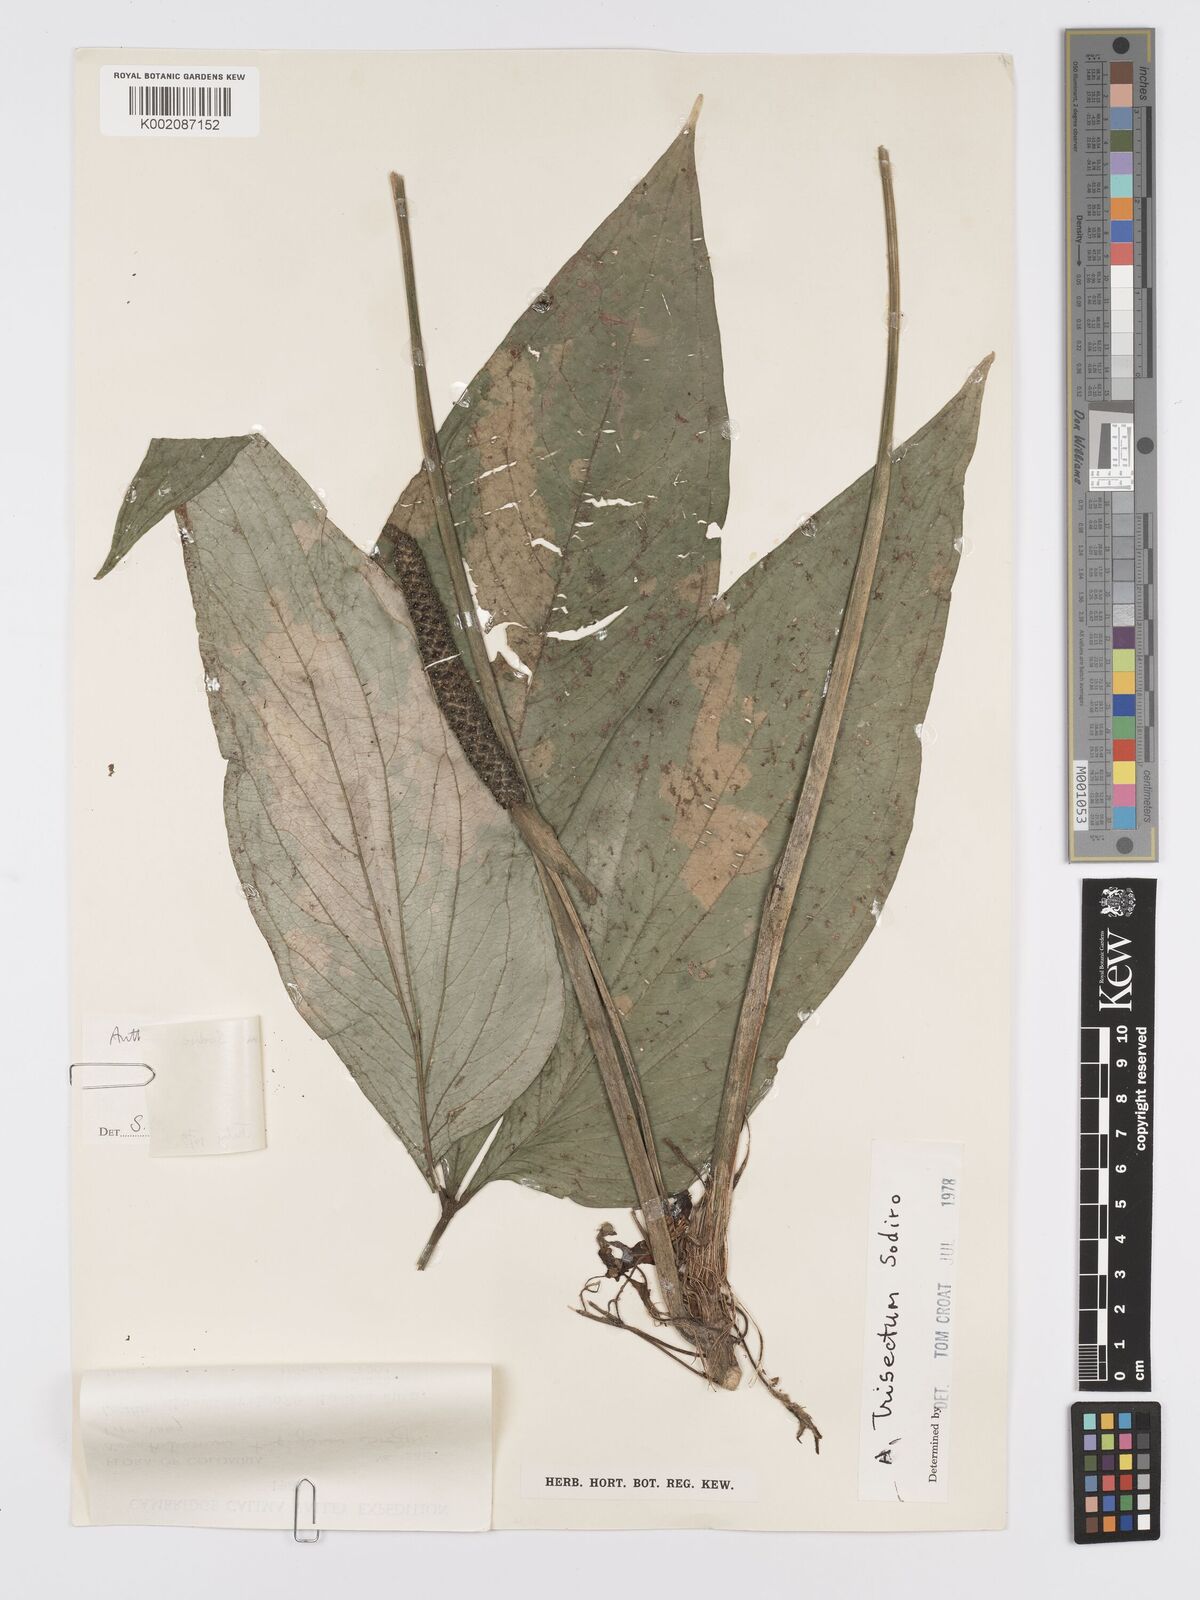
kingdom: Plantae
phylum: Tracheophyta
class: Liliopsida
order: Alismatales
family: Araceae
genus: Anthurium
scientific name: Anthurium trisectum
